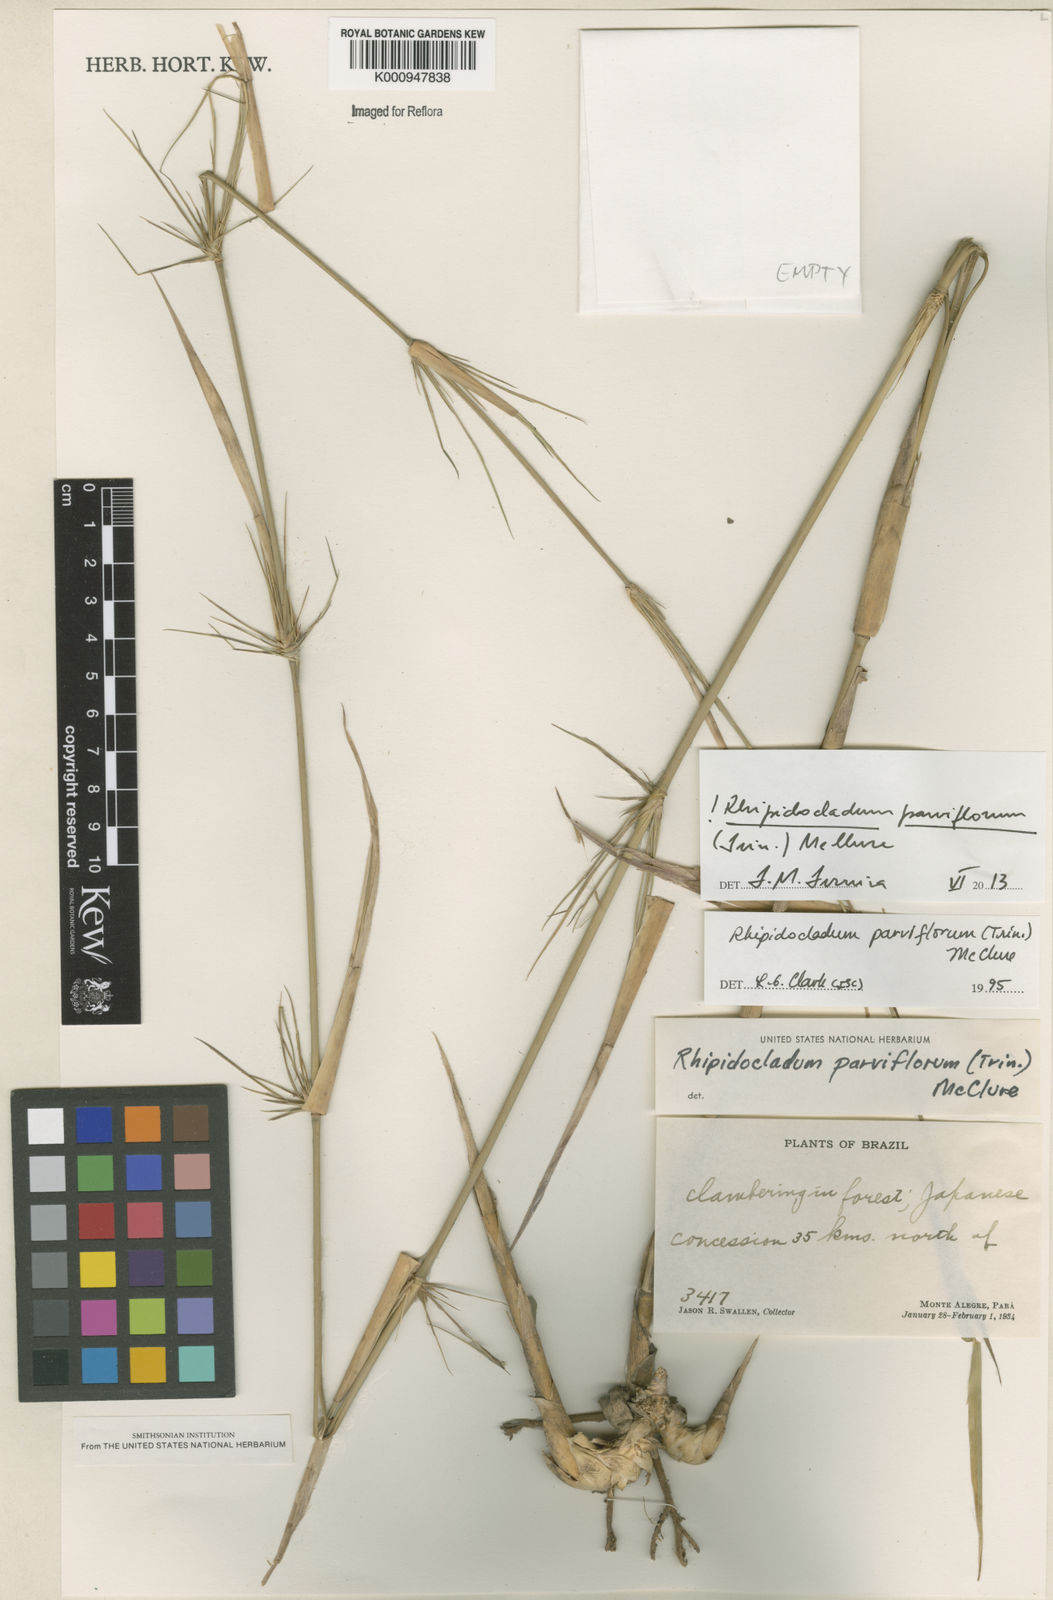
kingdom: Plantae
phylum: Tracheophyta
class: Liliopsida
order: Poales
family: Poaceae
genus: Rhipidocladum
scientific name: Rhipidocladum parviflorum
